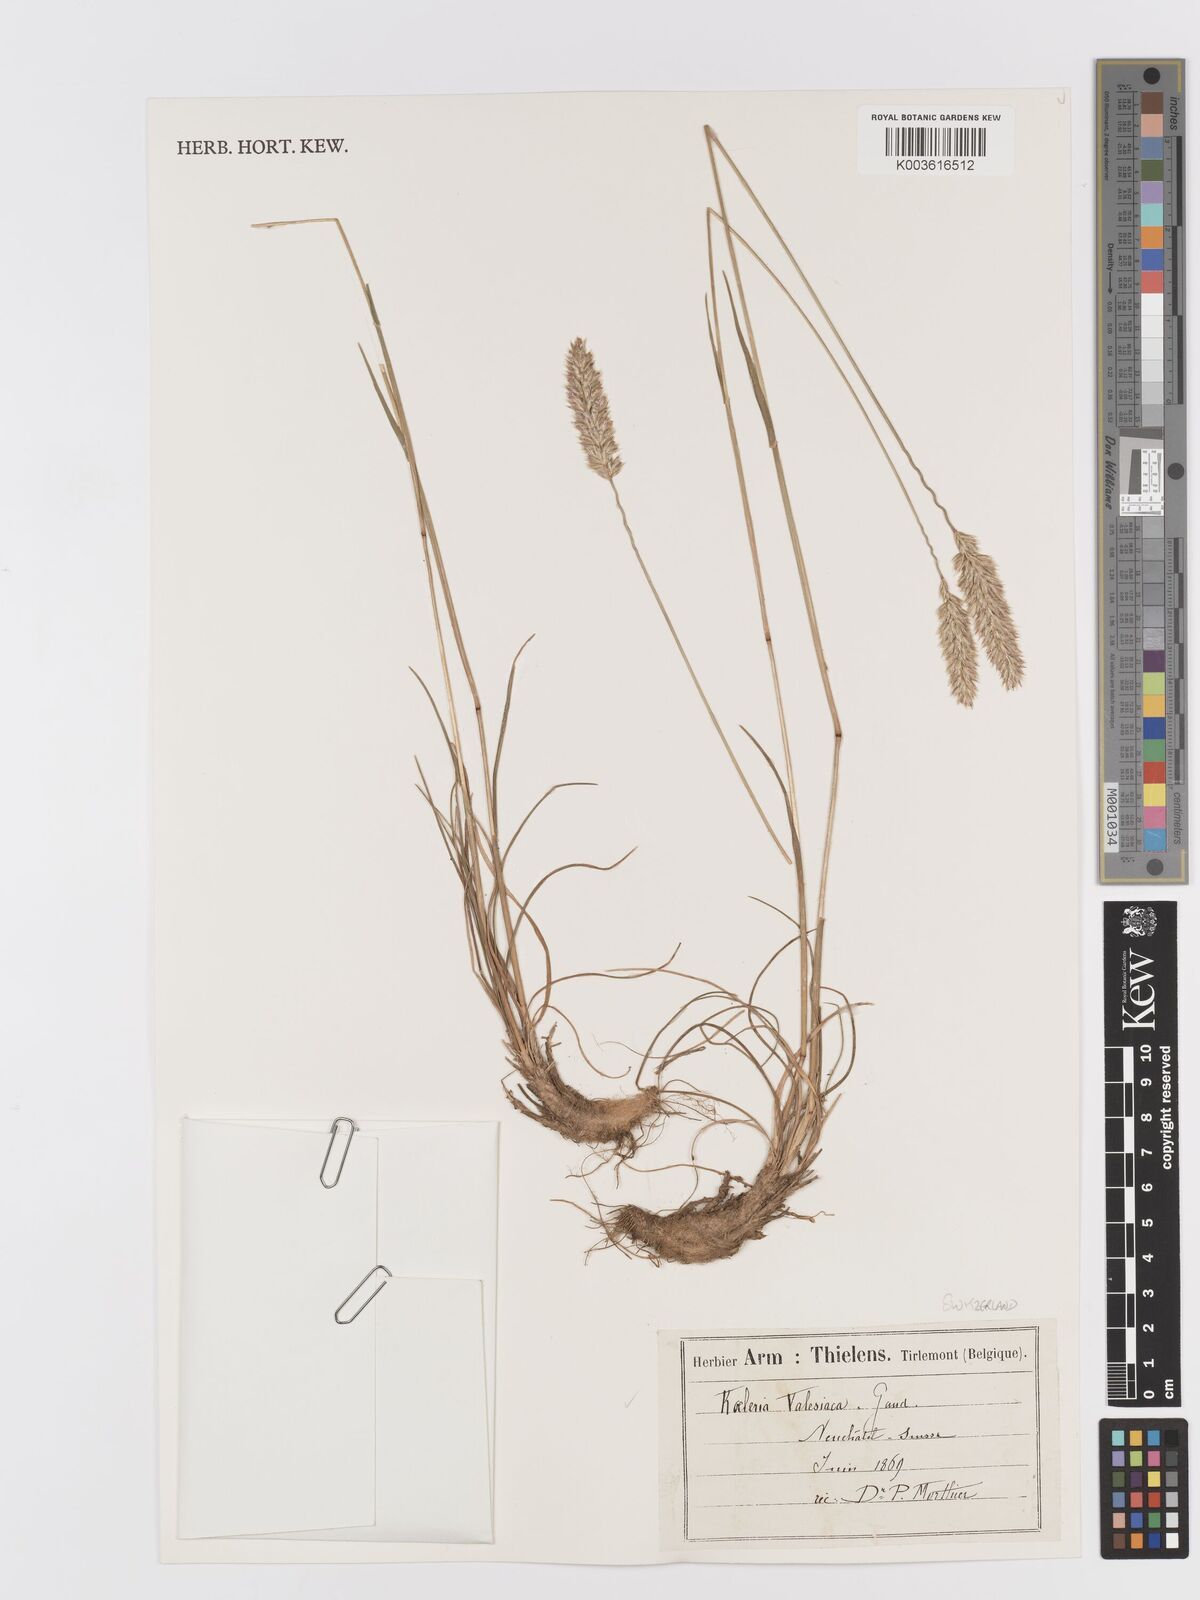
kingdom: Plantae
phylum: Tracheophyta
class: Liliopsida
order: Poales
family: Poaceae
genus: Koeleria
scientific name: Koeleria vallesiana
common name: Somerset hair-grass
